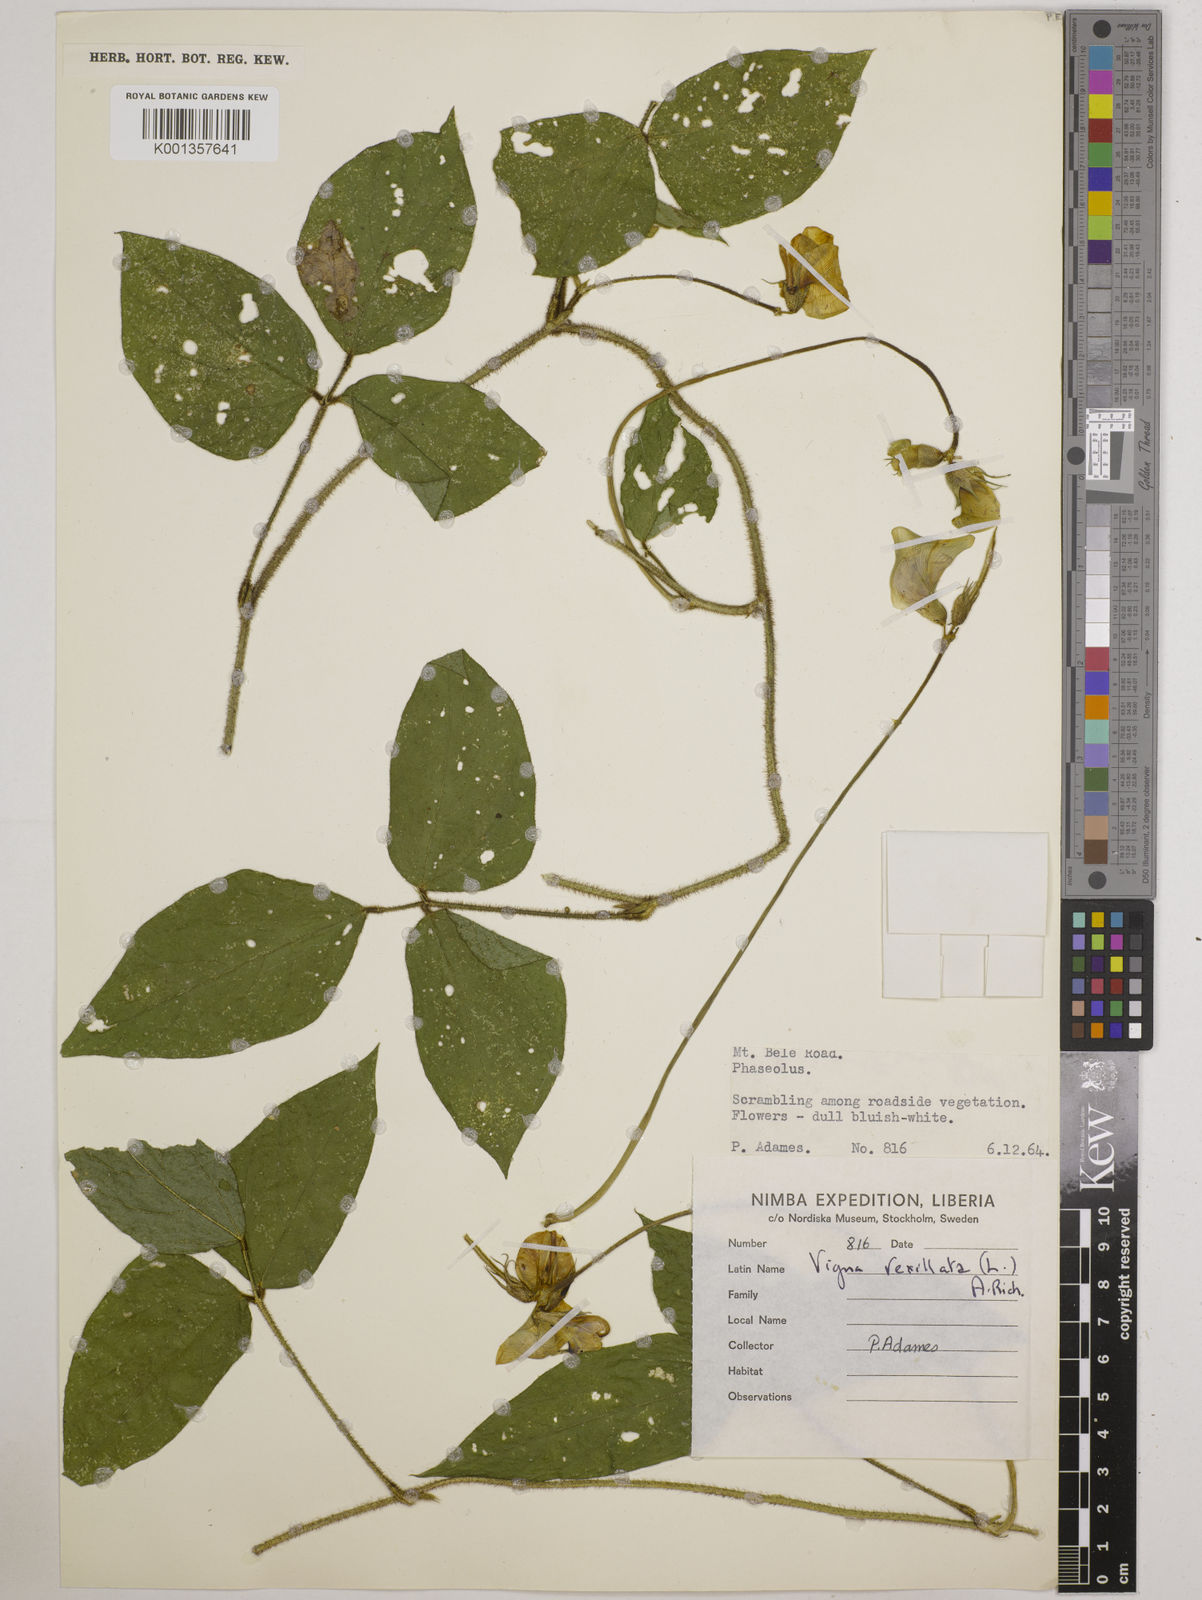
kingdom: Plantae
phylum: Tracheophyta
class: Magnoliopsida
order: Fabales
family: Fabaceae
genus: Vigna
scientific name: Vigna vexillata
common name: Zombi pea
